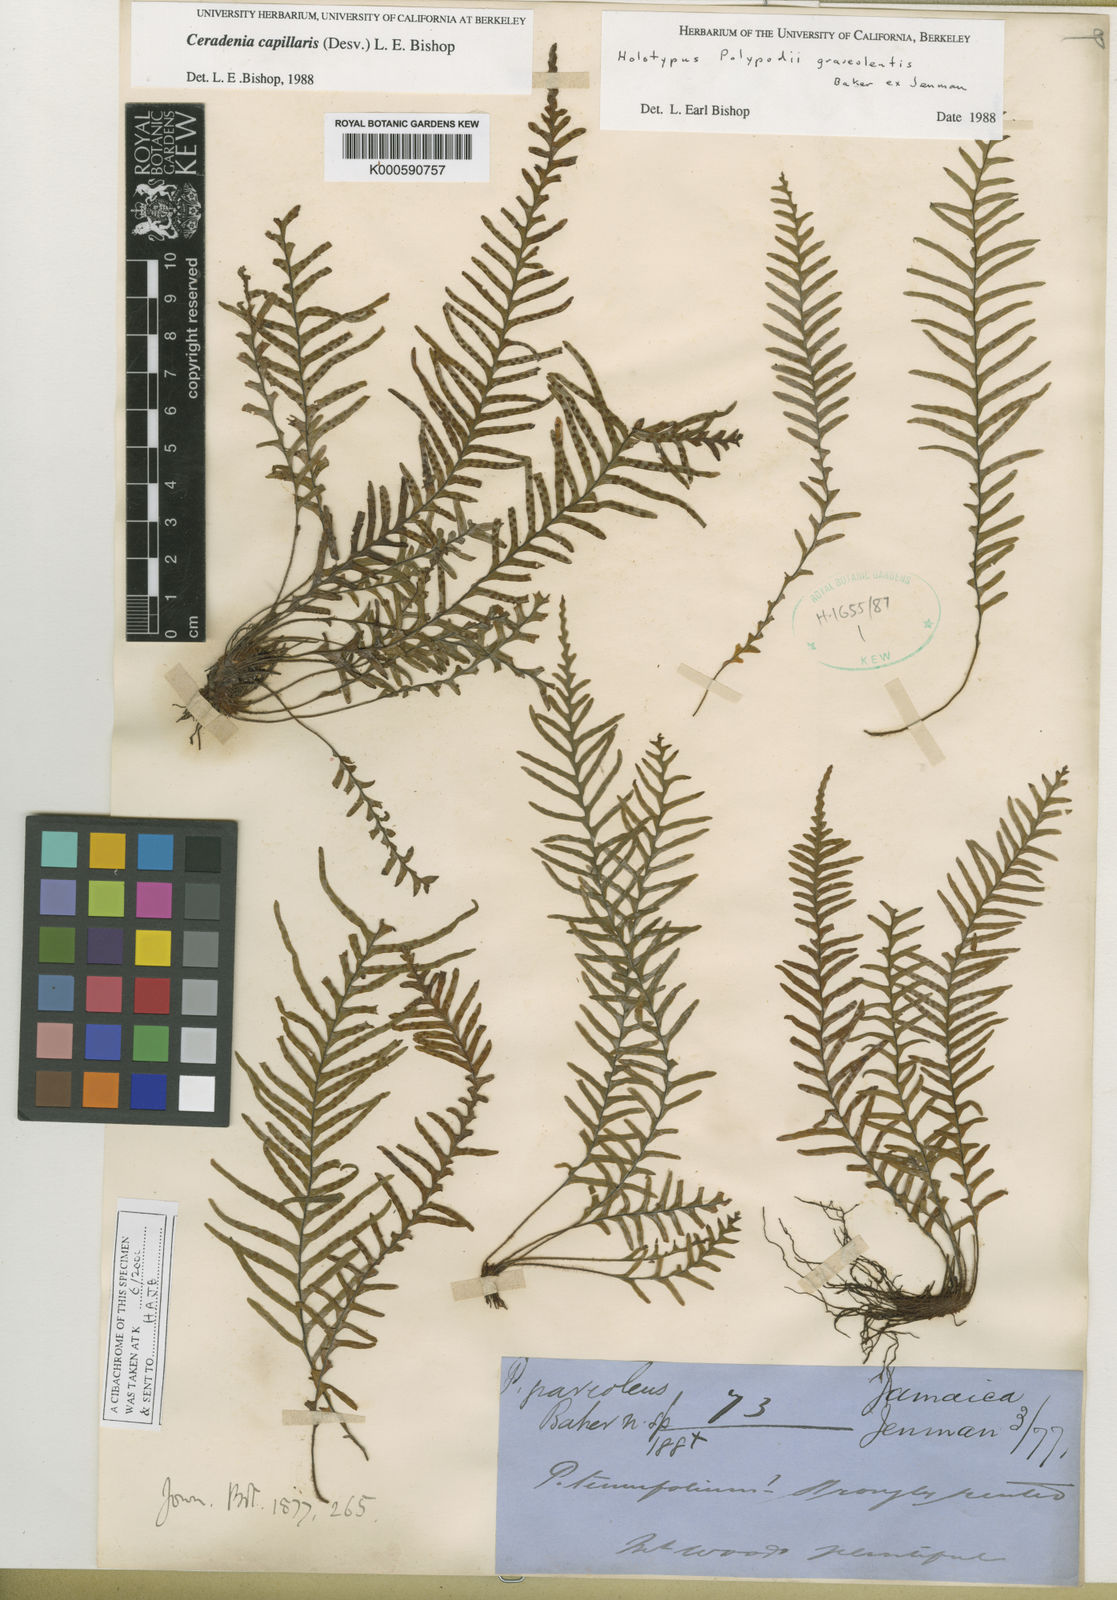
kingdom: Plantae
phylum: Tracheophyta
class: Polypodiopsida
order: Polypodiales
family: Polypodiaceae
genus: Ceradenia
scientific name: Ceradenia capillaris
